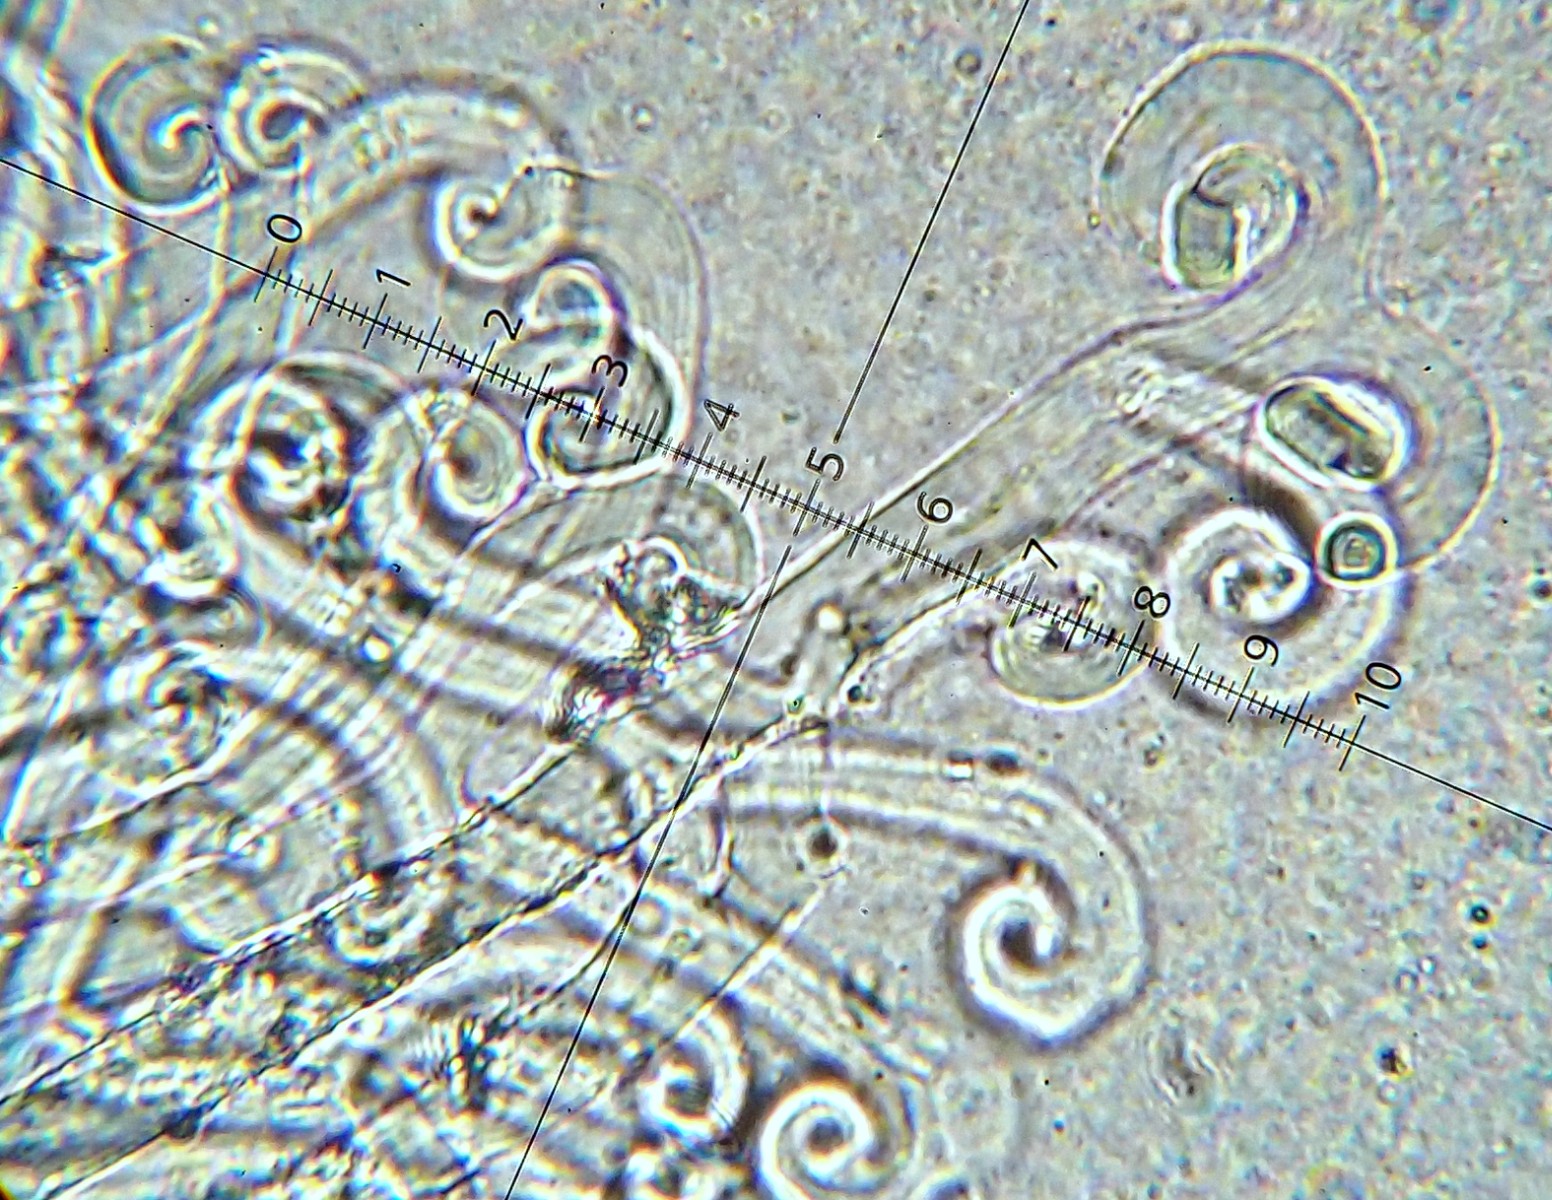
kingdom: Fungi
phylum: Ascomycota
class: Leotiomycetes
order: Helotiales
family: Erysiphaceae
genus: Sawadaea
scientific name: Sawadaea bicornis
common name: Maple mildew
